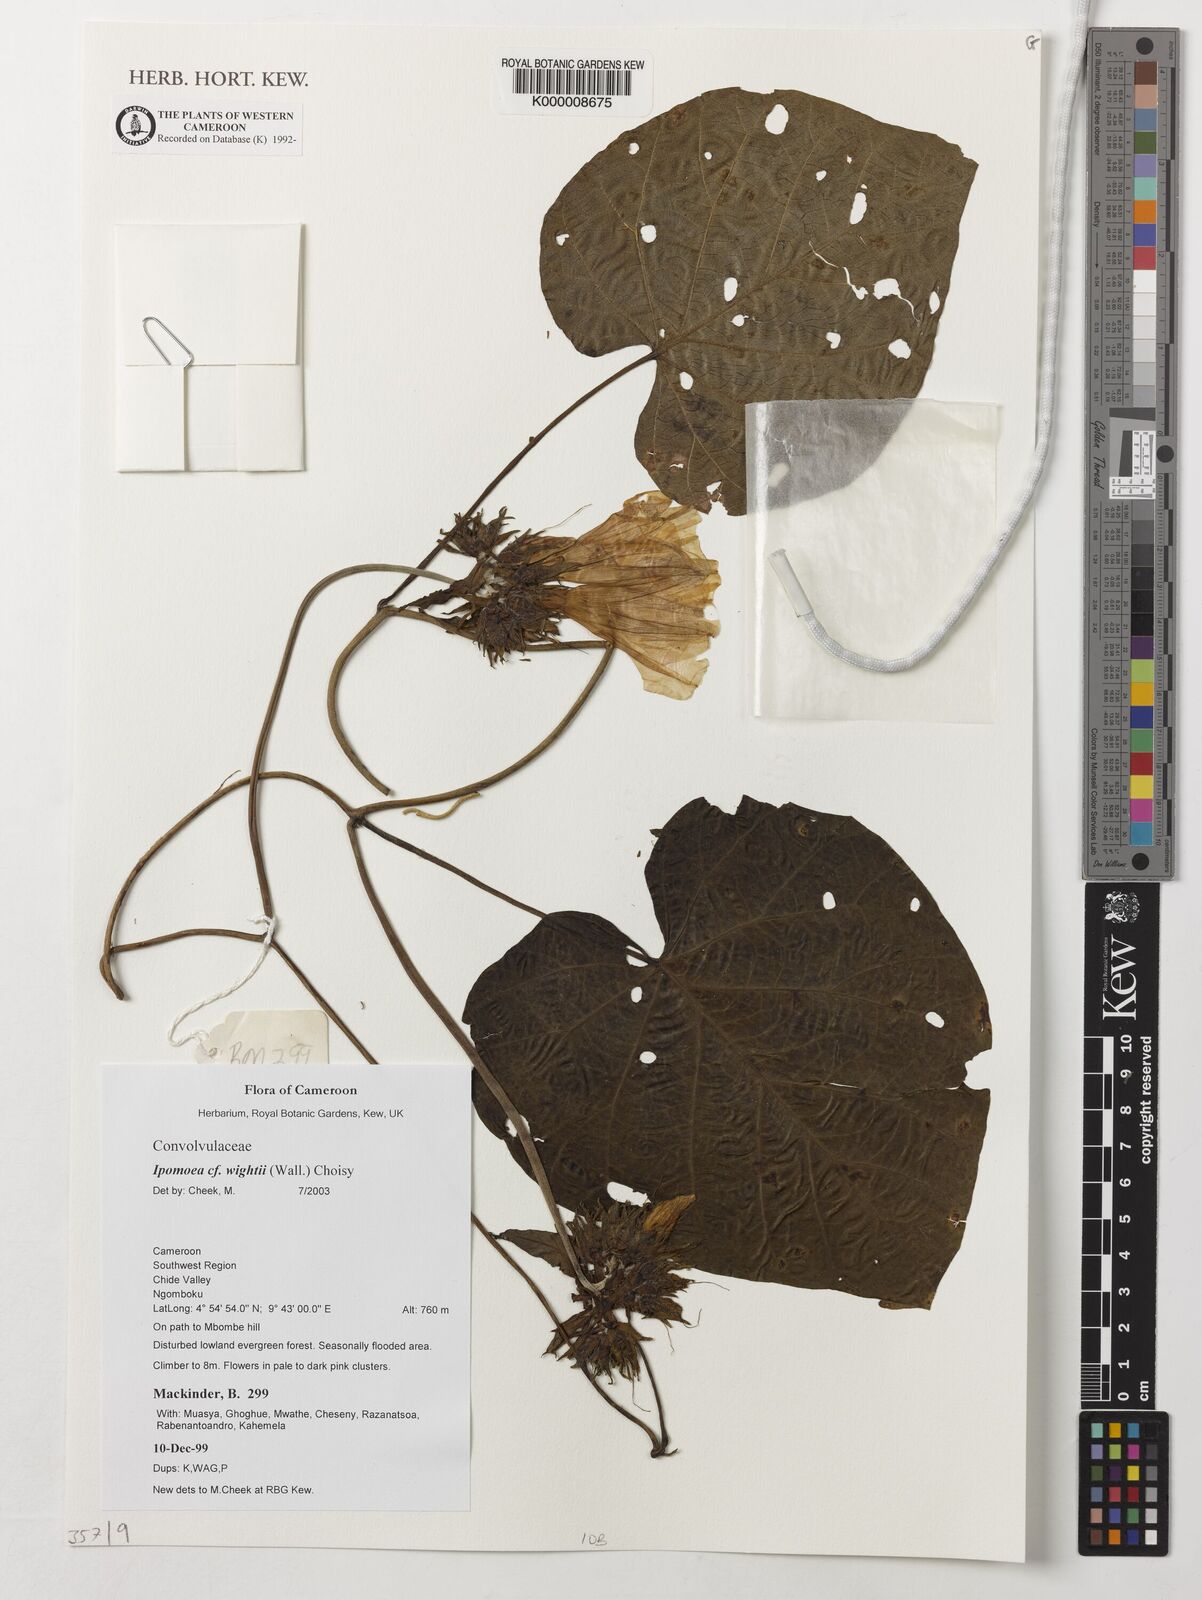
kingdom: Plantae
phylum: Tracheophyta
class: Magnoliopsida
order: Solanales
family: Convolvulaceae
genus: Ipomoea
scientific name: Ipomoea wightii
